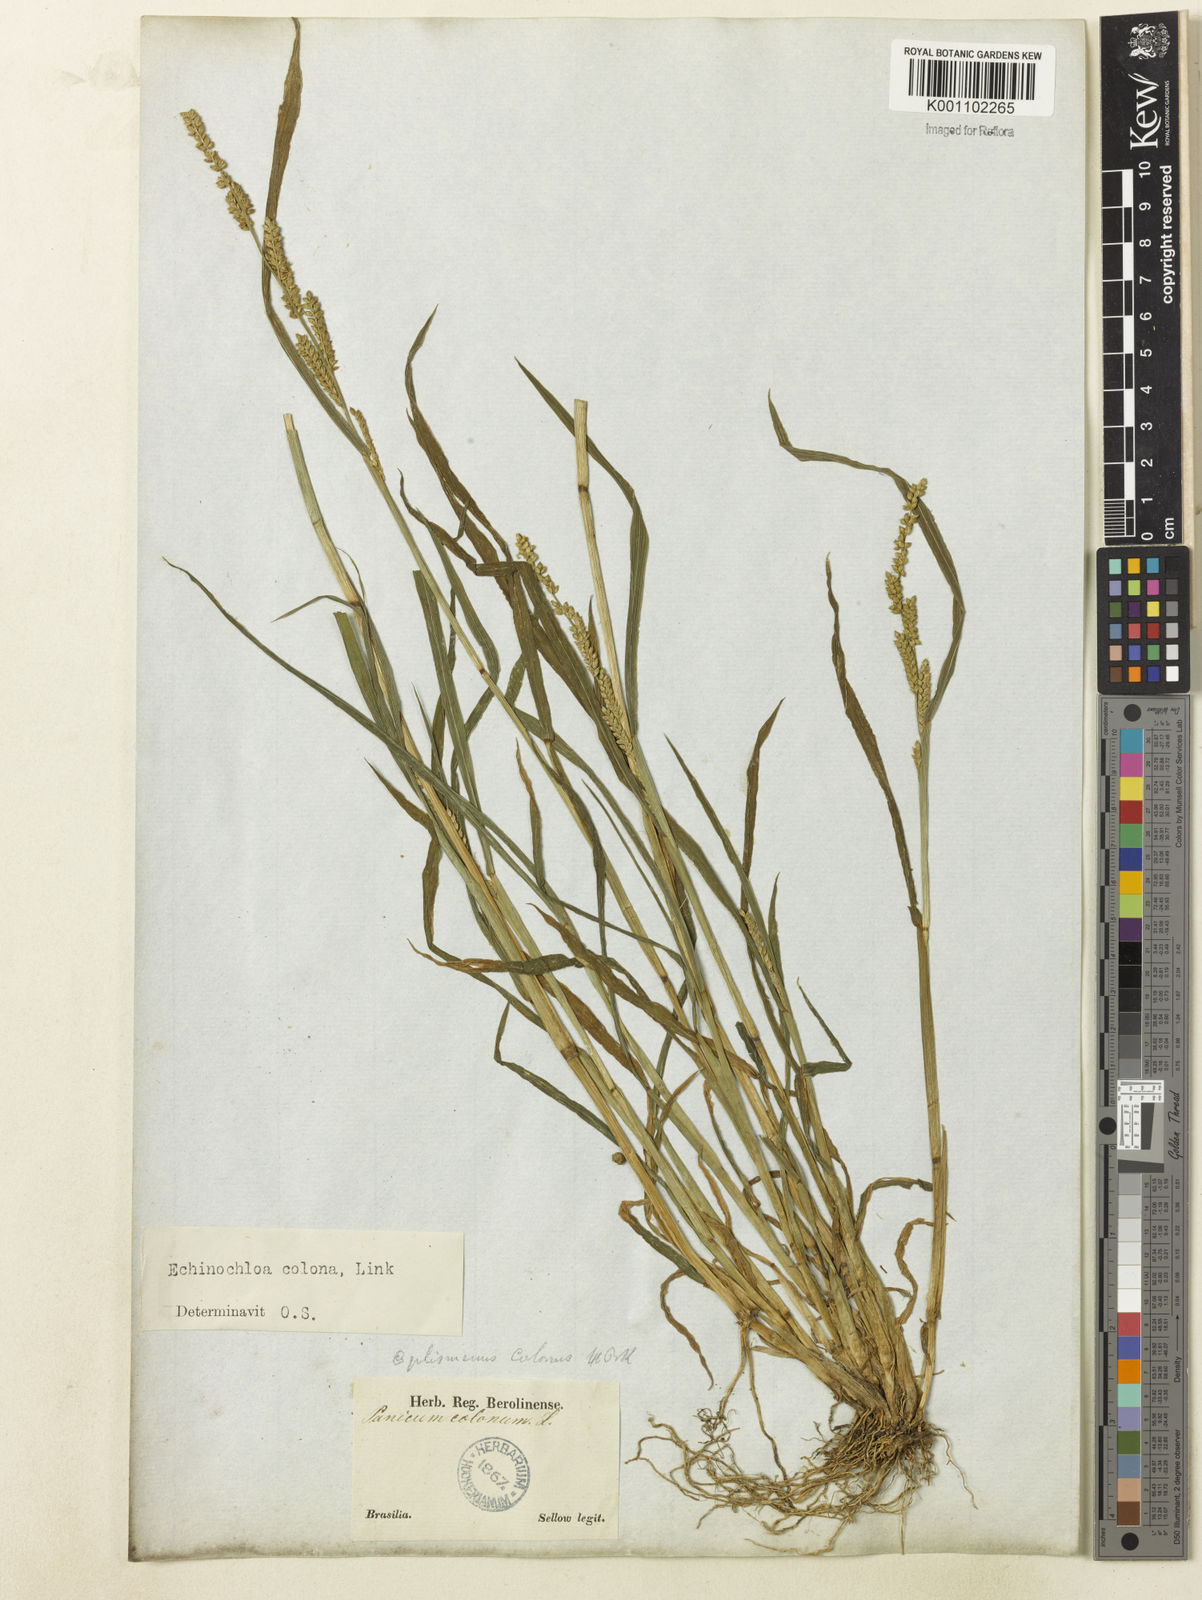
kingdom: Plantae
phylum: Tracheophyta
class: Liliopsida
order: Poales
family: Poaceae
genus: Echinochloa
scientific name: Echinochloa colonum
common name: Jungle rice
